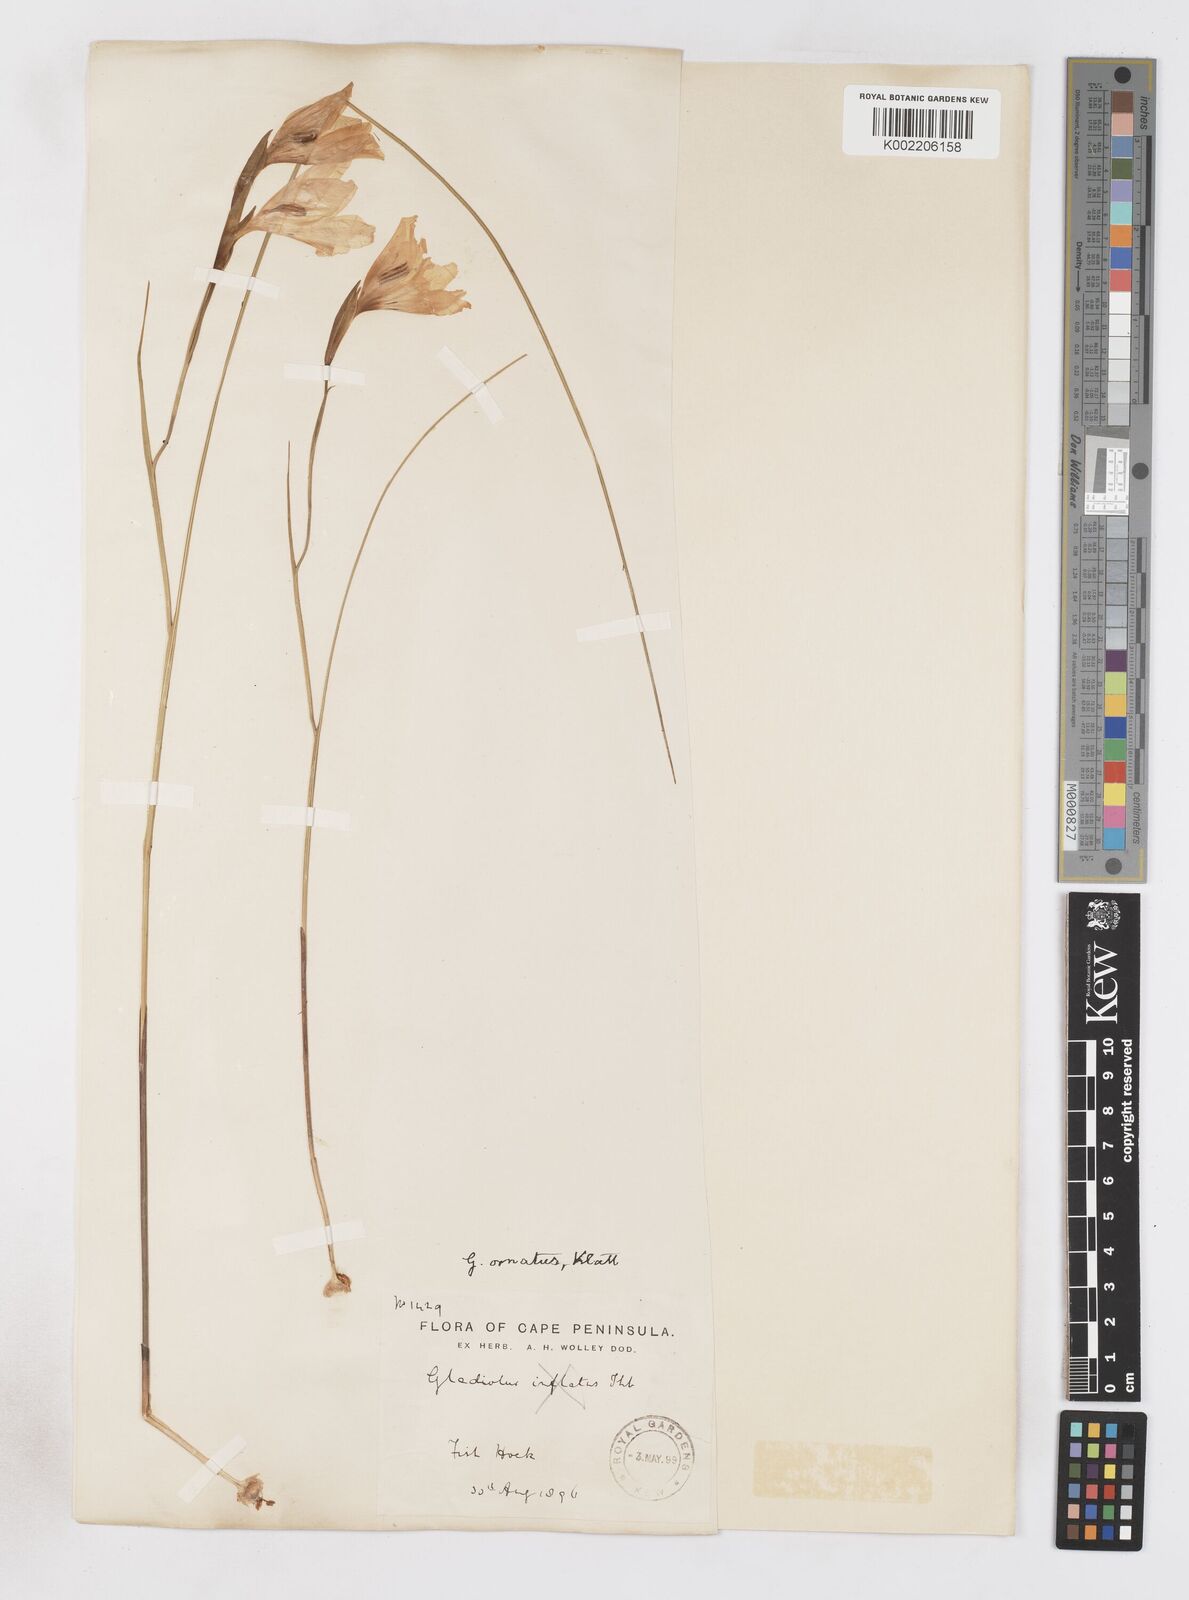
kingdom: Plantae
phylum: Tracheophyta
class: Liliopsida
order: Asparagales
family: Iridaceae
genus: Gladiolus
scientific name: Gladiolus ornatus
